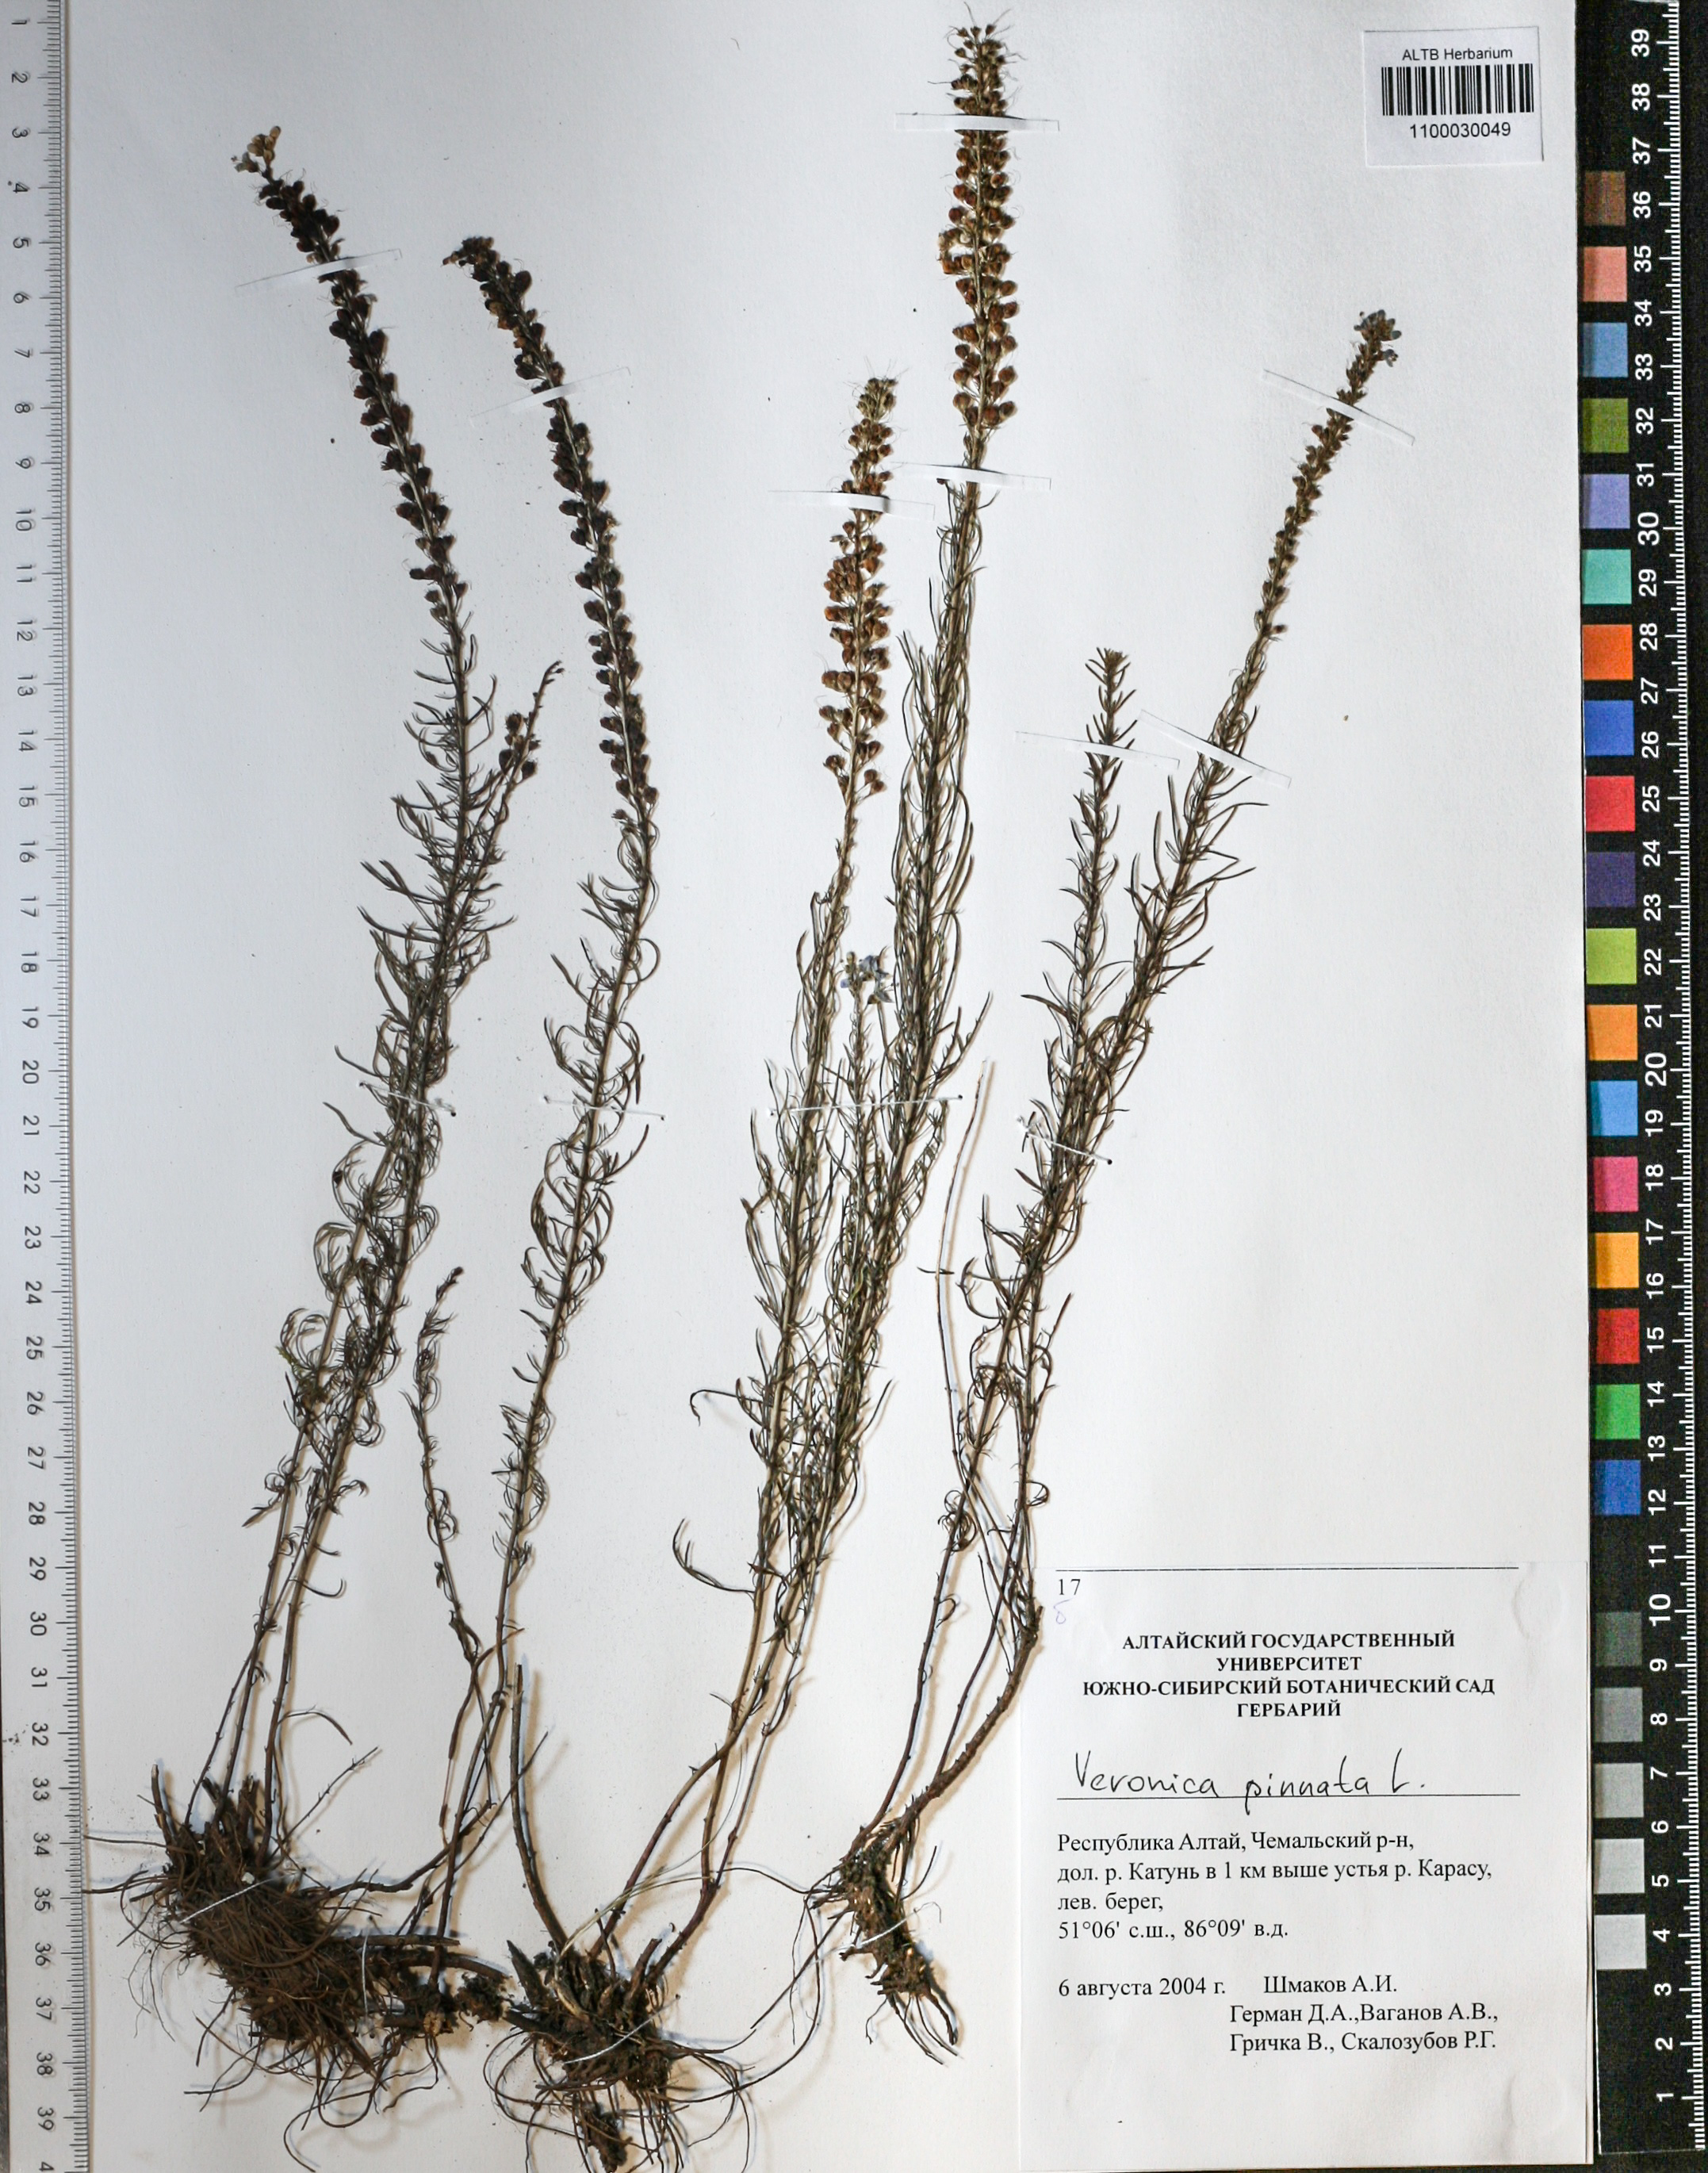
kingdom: Plantae
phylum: Tracheophyta
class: Magnoliopsida
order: Lamiales
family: Plantaginaceae
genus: Veronica
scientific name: Veronica pinnata
